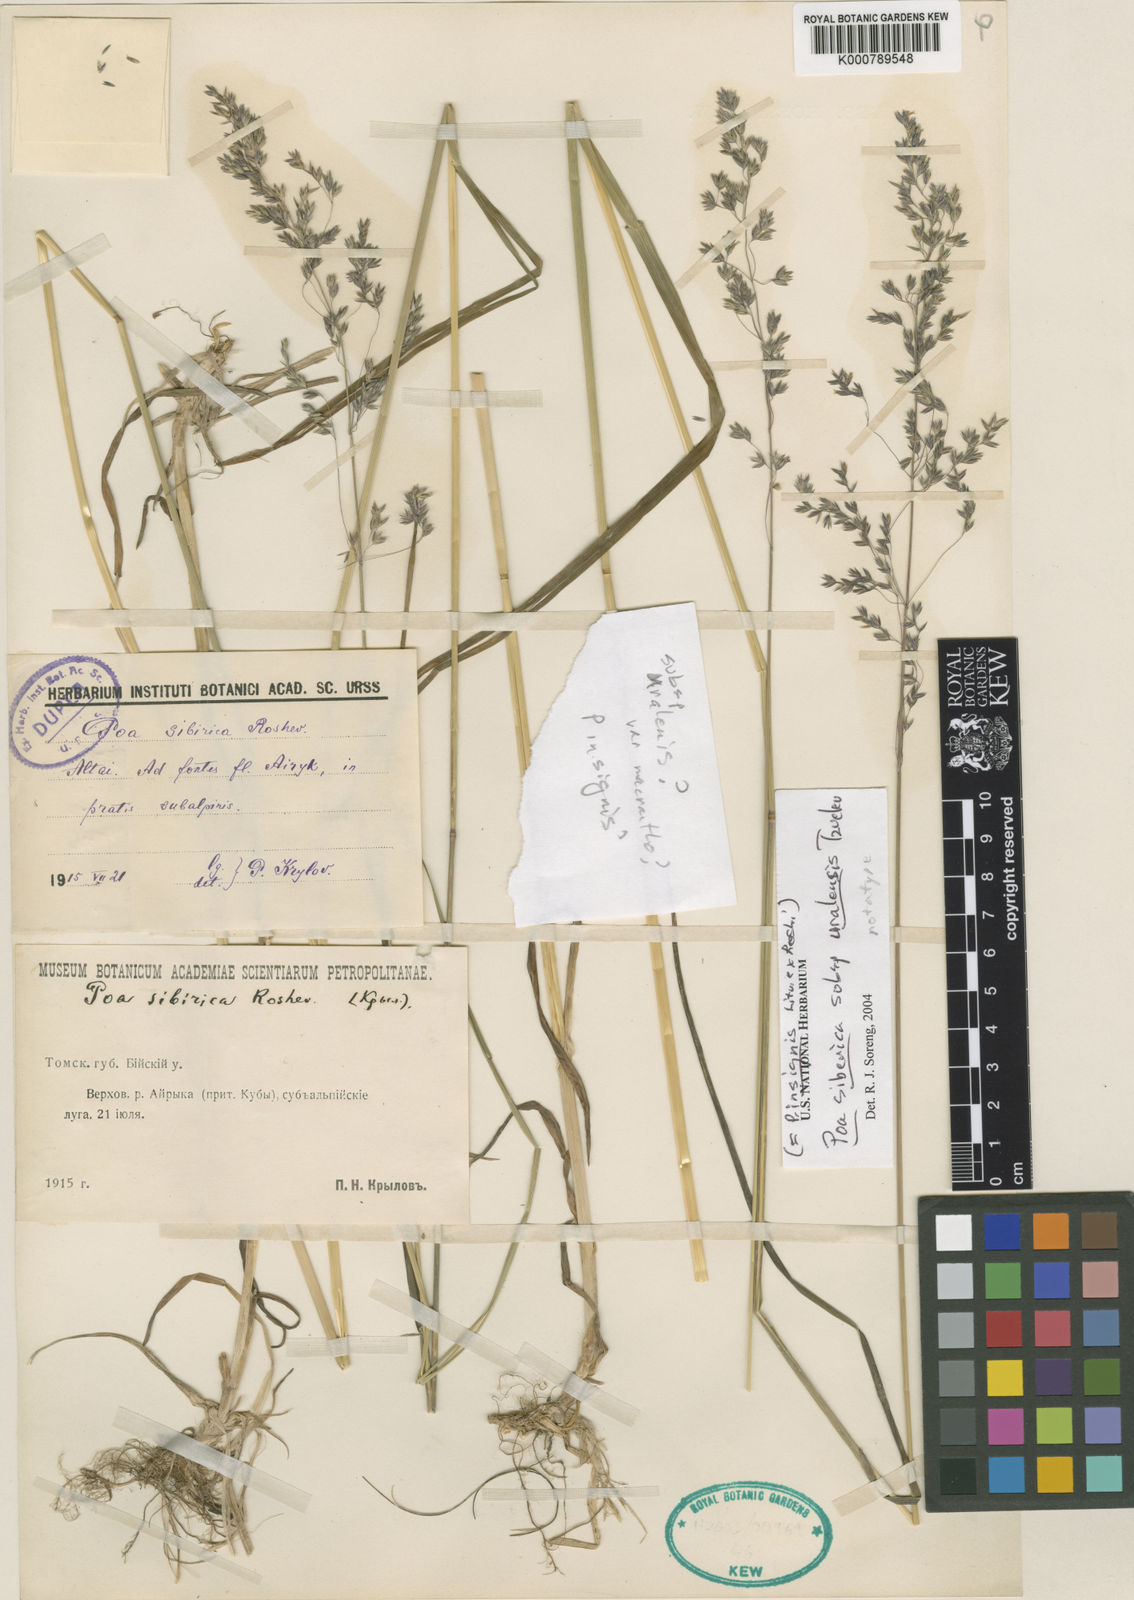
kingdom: Plantae
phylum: Tracheophyta
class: Liliopsida
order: Poales
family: Poaceae
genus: Poa
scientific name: Poa sibirica
